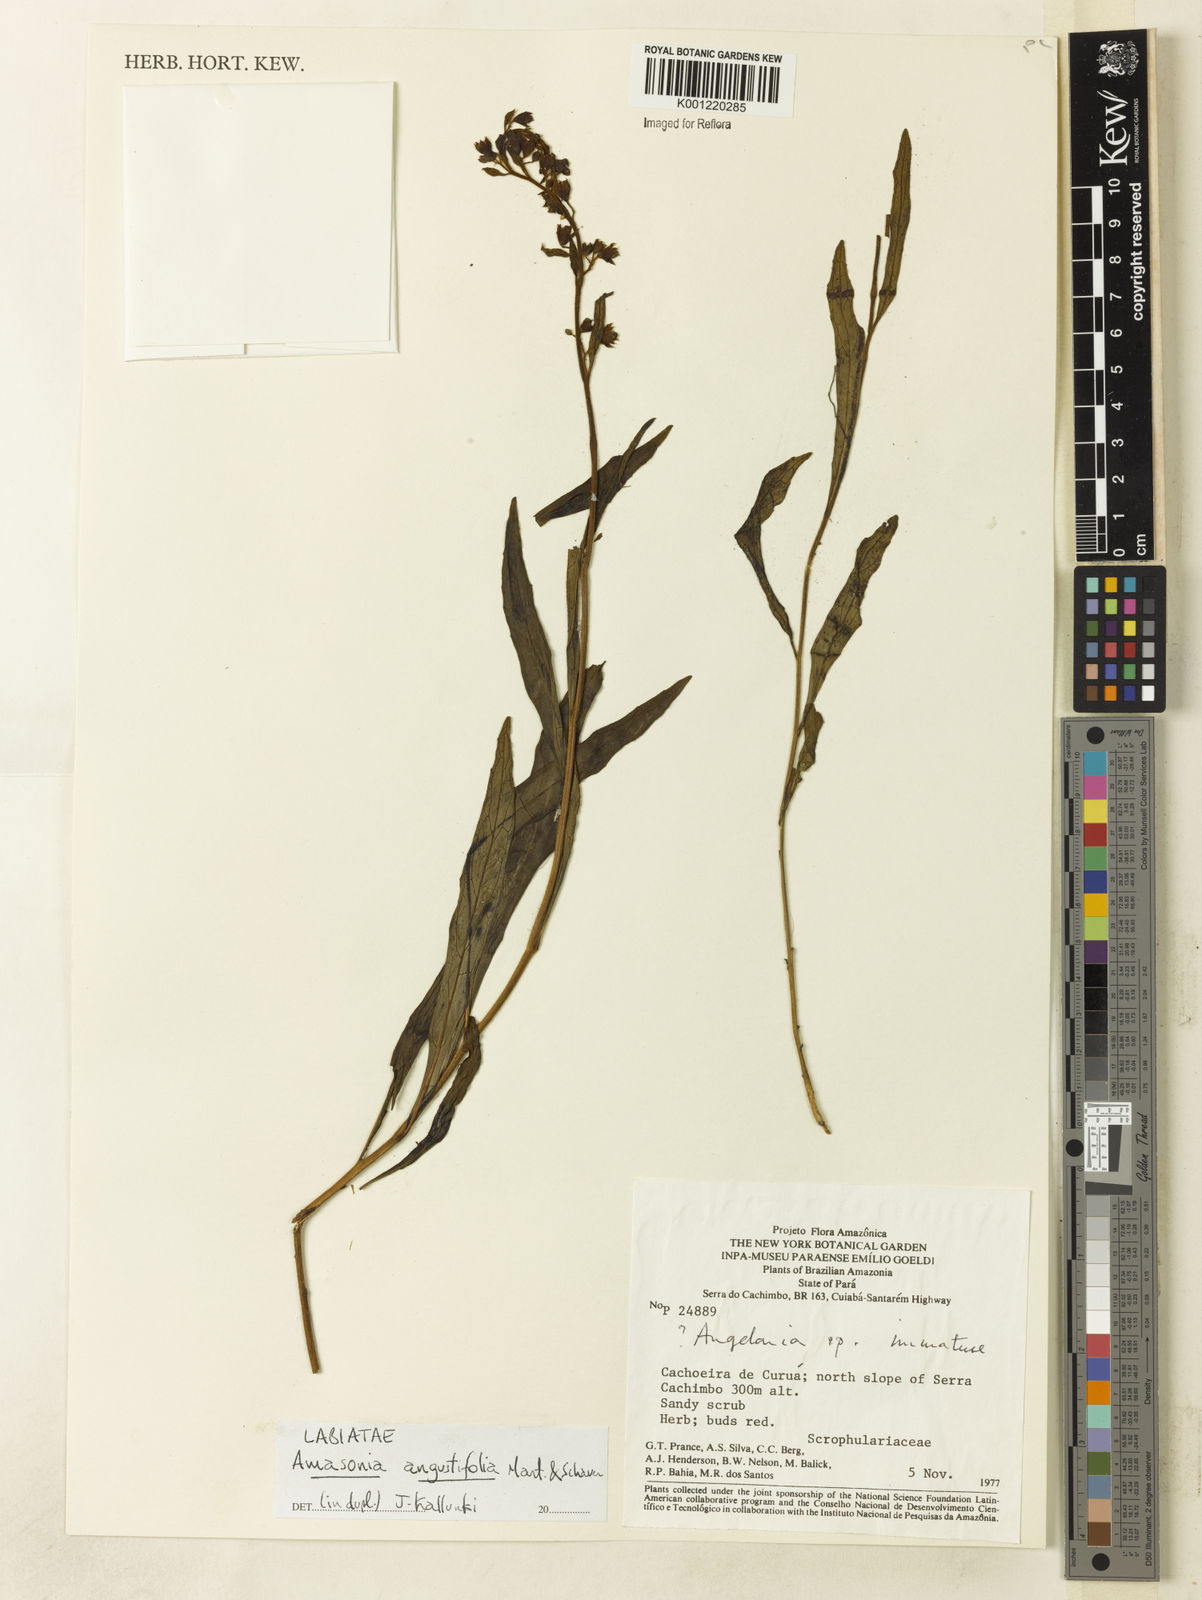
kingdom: Plantae
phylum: Tracheophyta
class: Magnoliopsida
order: Lamiales
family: Lamiaceae
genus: Amasonia
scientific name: Amasonia angustifolia
